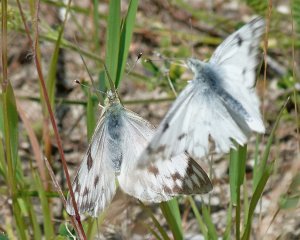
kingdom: Animalia
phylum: Arthropoda
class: Insecta
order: Lepidoptera
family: Pieridae
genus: Pontia
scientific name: Pontia occidentalis
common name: Western White
